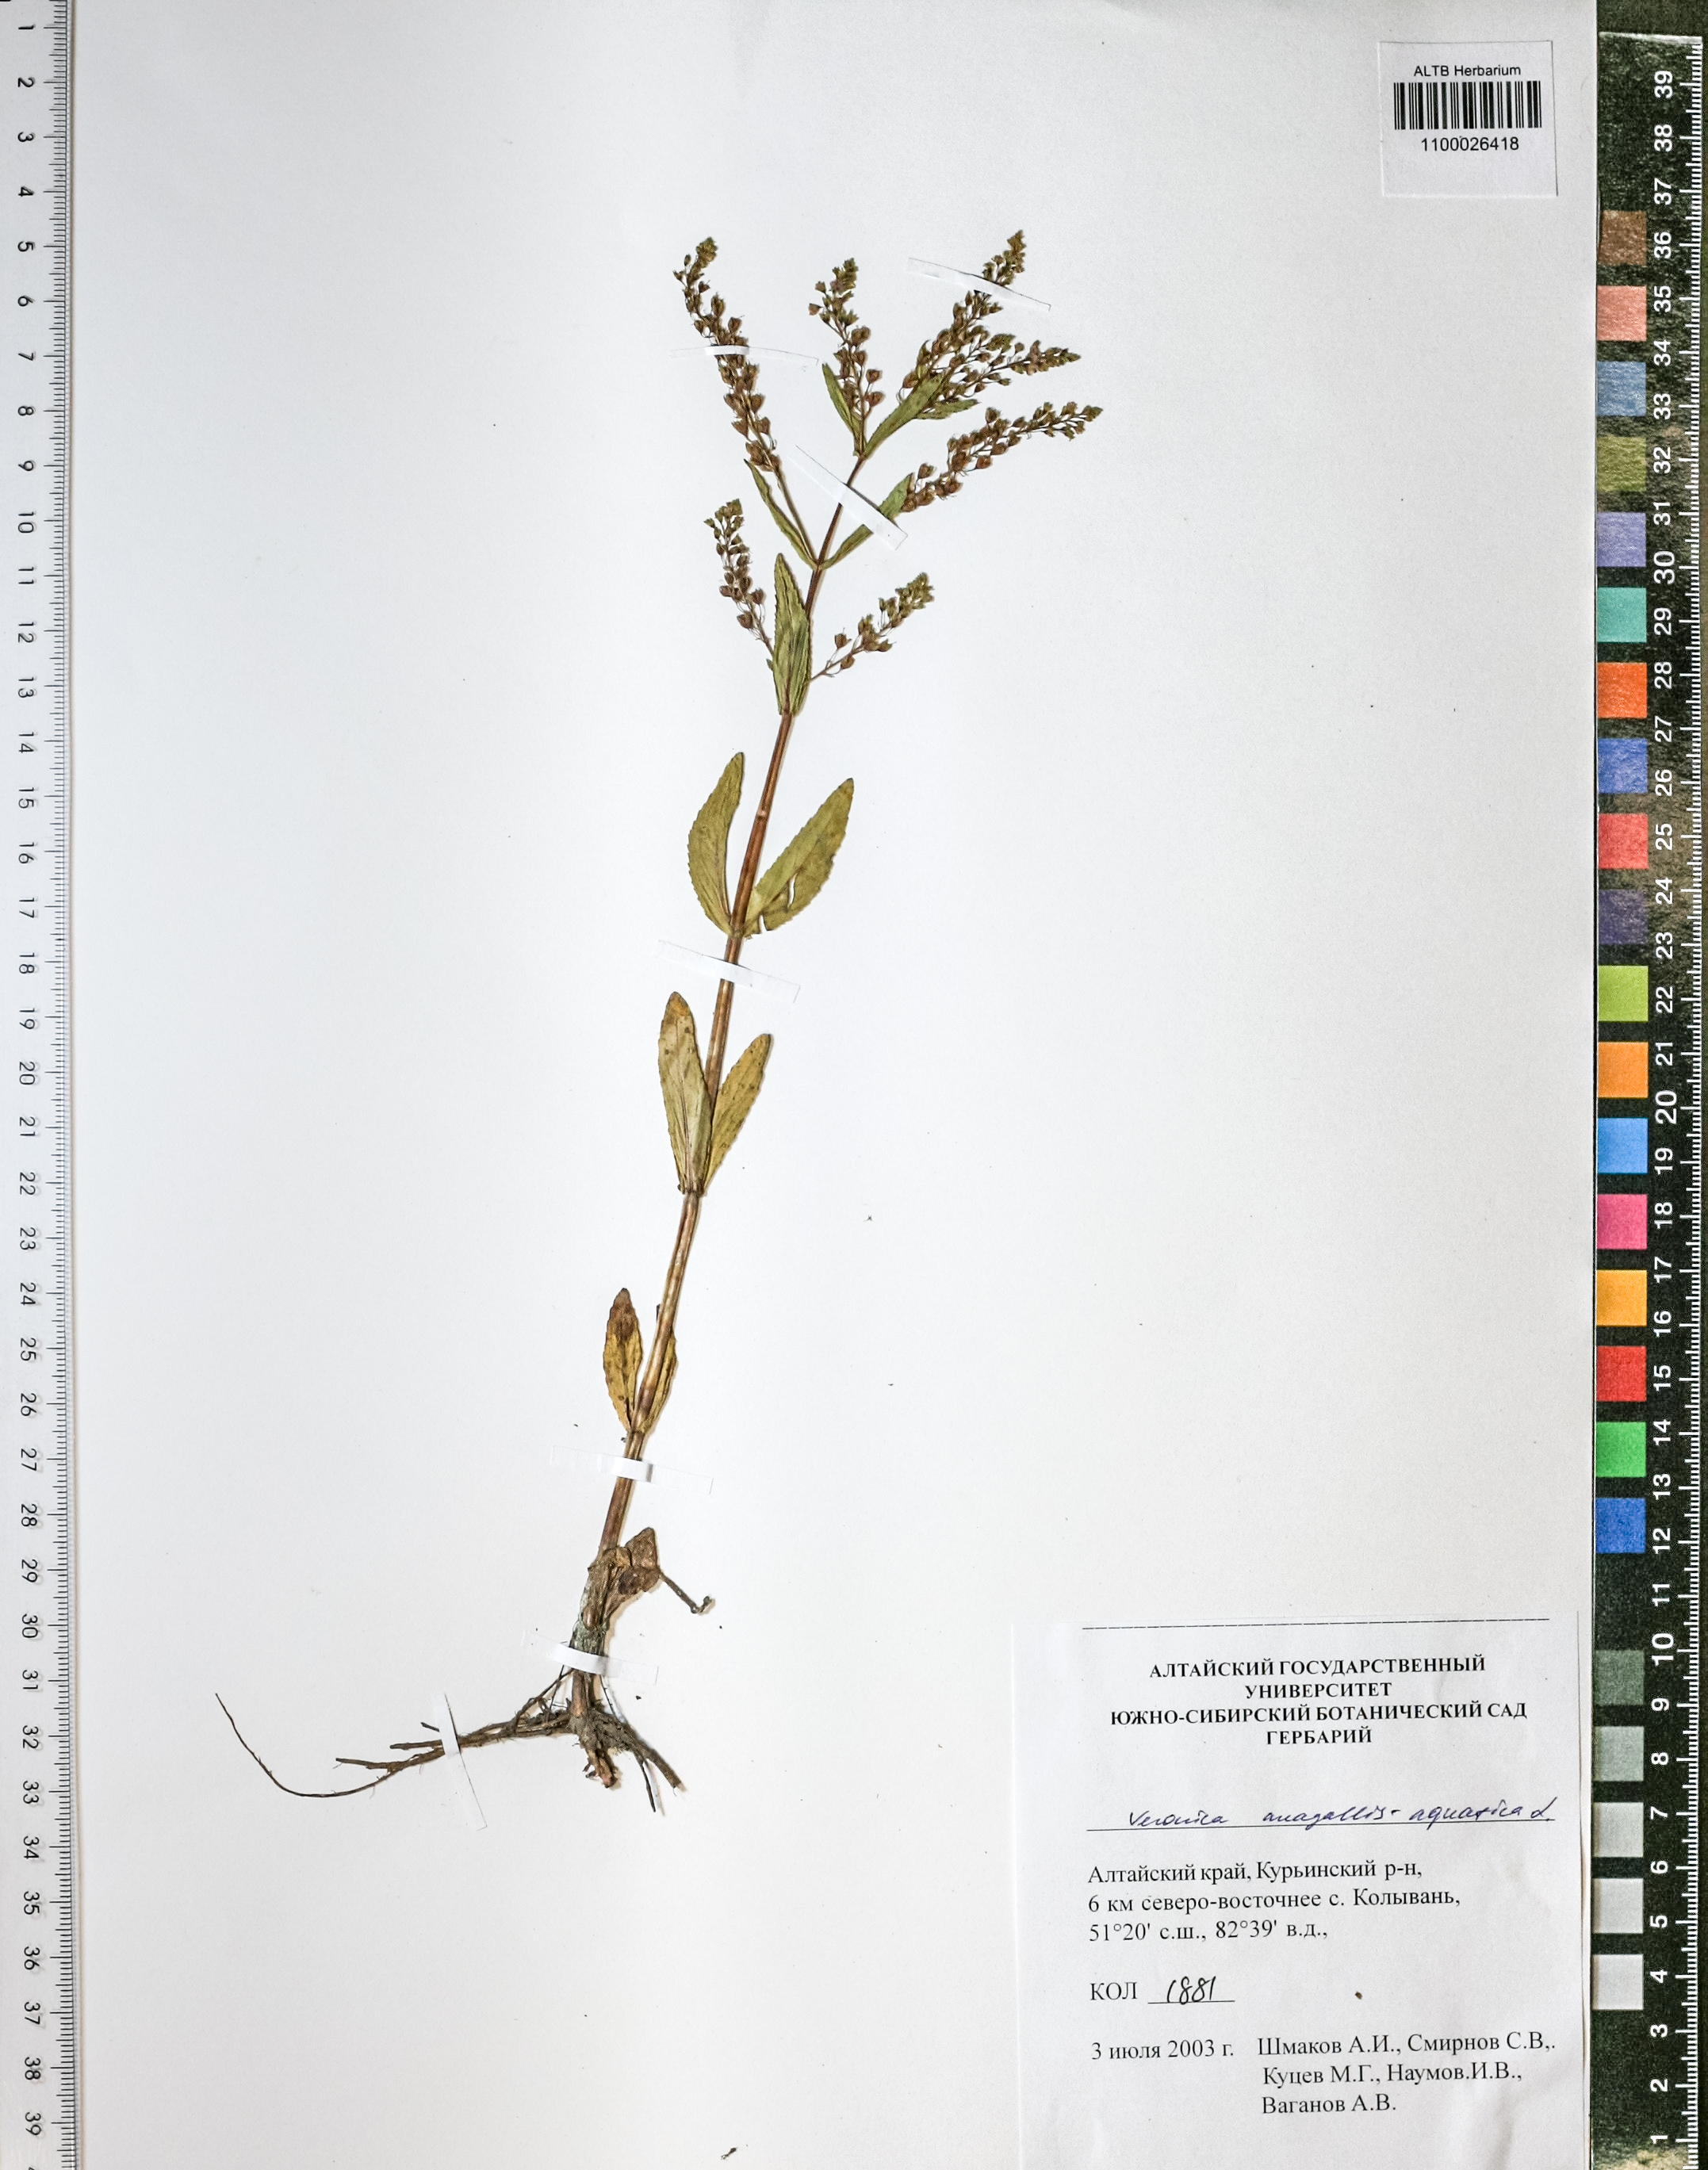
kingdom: Plantae
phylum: Tracheophyta
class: Magnoliopsida
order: Lamiales
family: Plantaginaceae
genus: Veronica
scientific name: Veronica anagallis-aquatica
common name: Water speedwell
